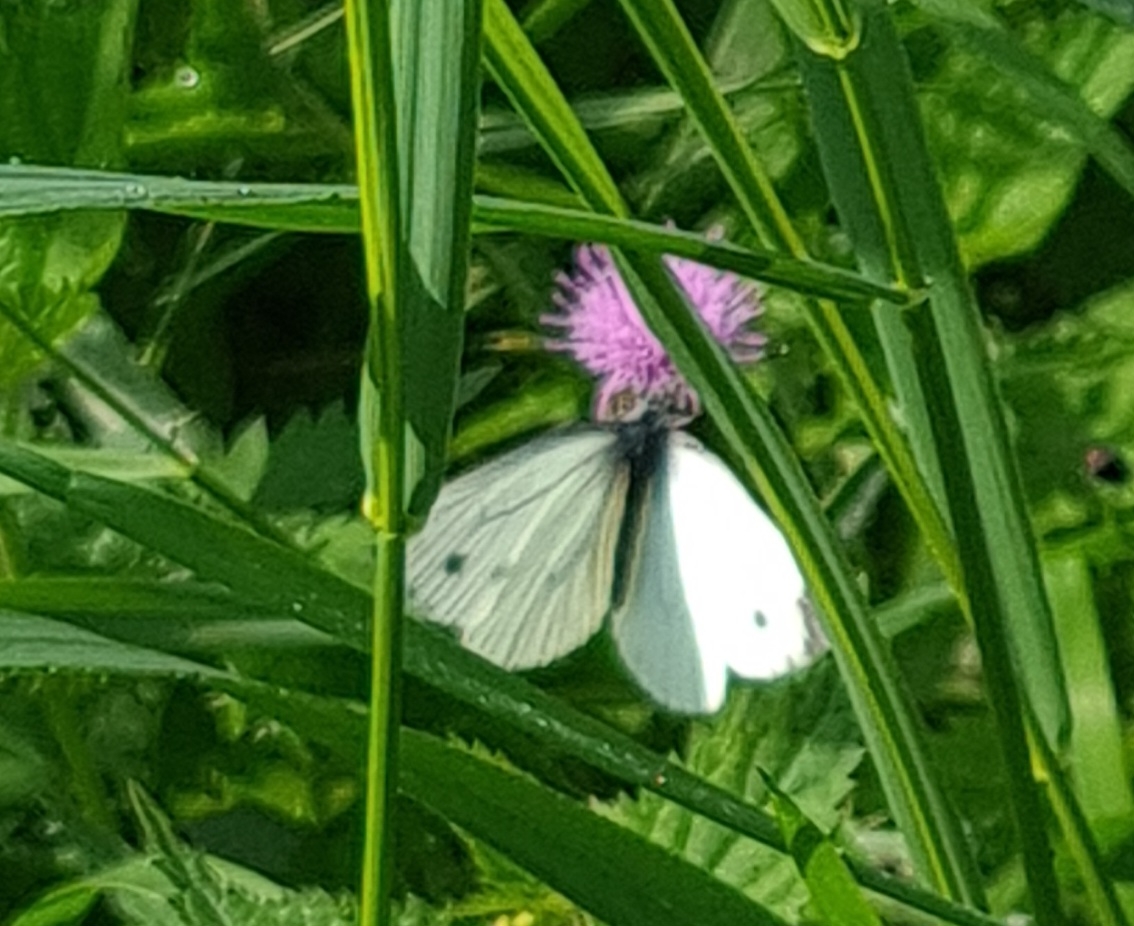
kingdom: Animalia
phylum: Arthropoda
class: Insecta
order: Lepidoptera
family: Pieridae
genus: Pieris
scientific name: Pieris napi
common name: Grønåret kålsommerfugl
